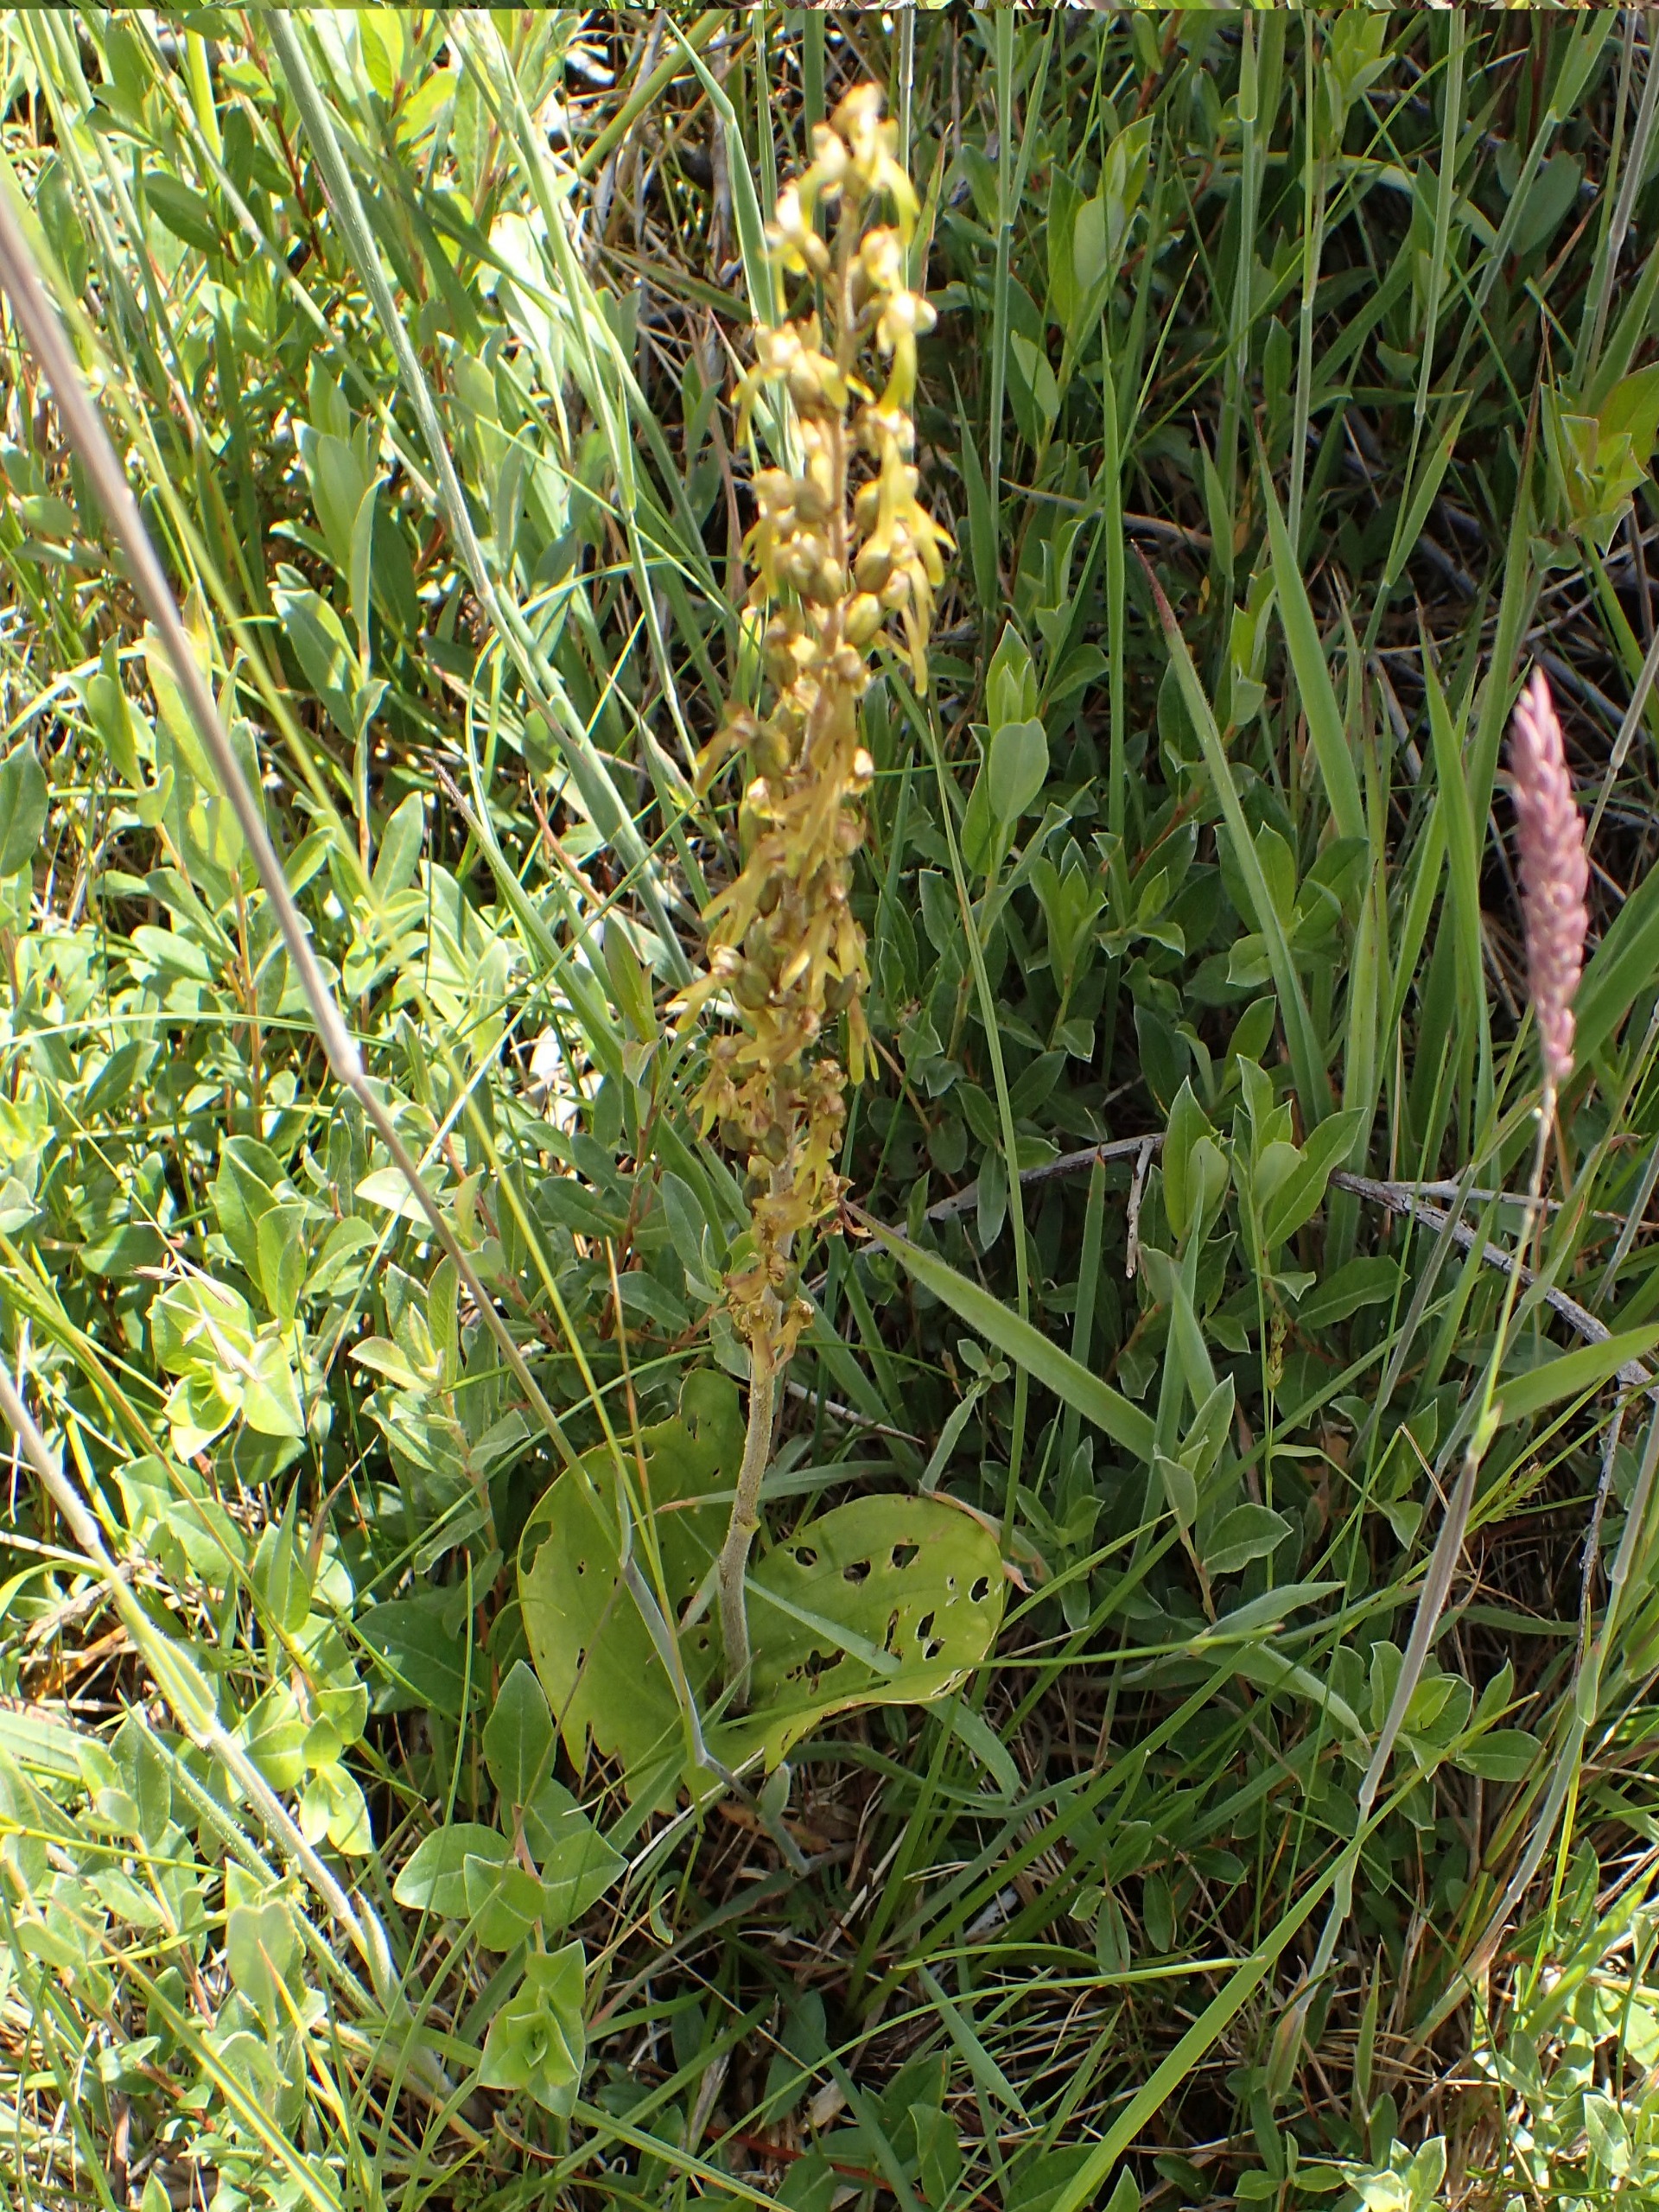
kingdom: Plantae
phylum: Tracheophyta
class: Liliopsida
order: Asparagales
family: Orchidaceae
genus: Neottia
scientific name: Neottia ovata
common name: Ægbladet fliglæbe
